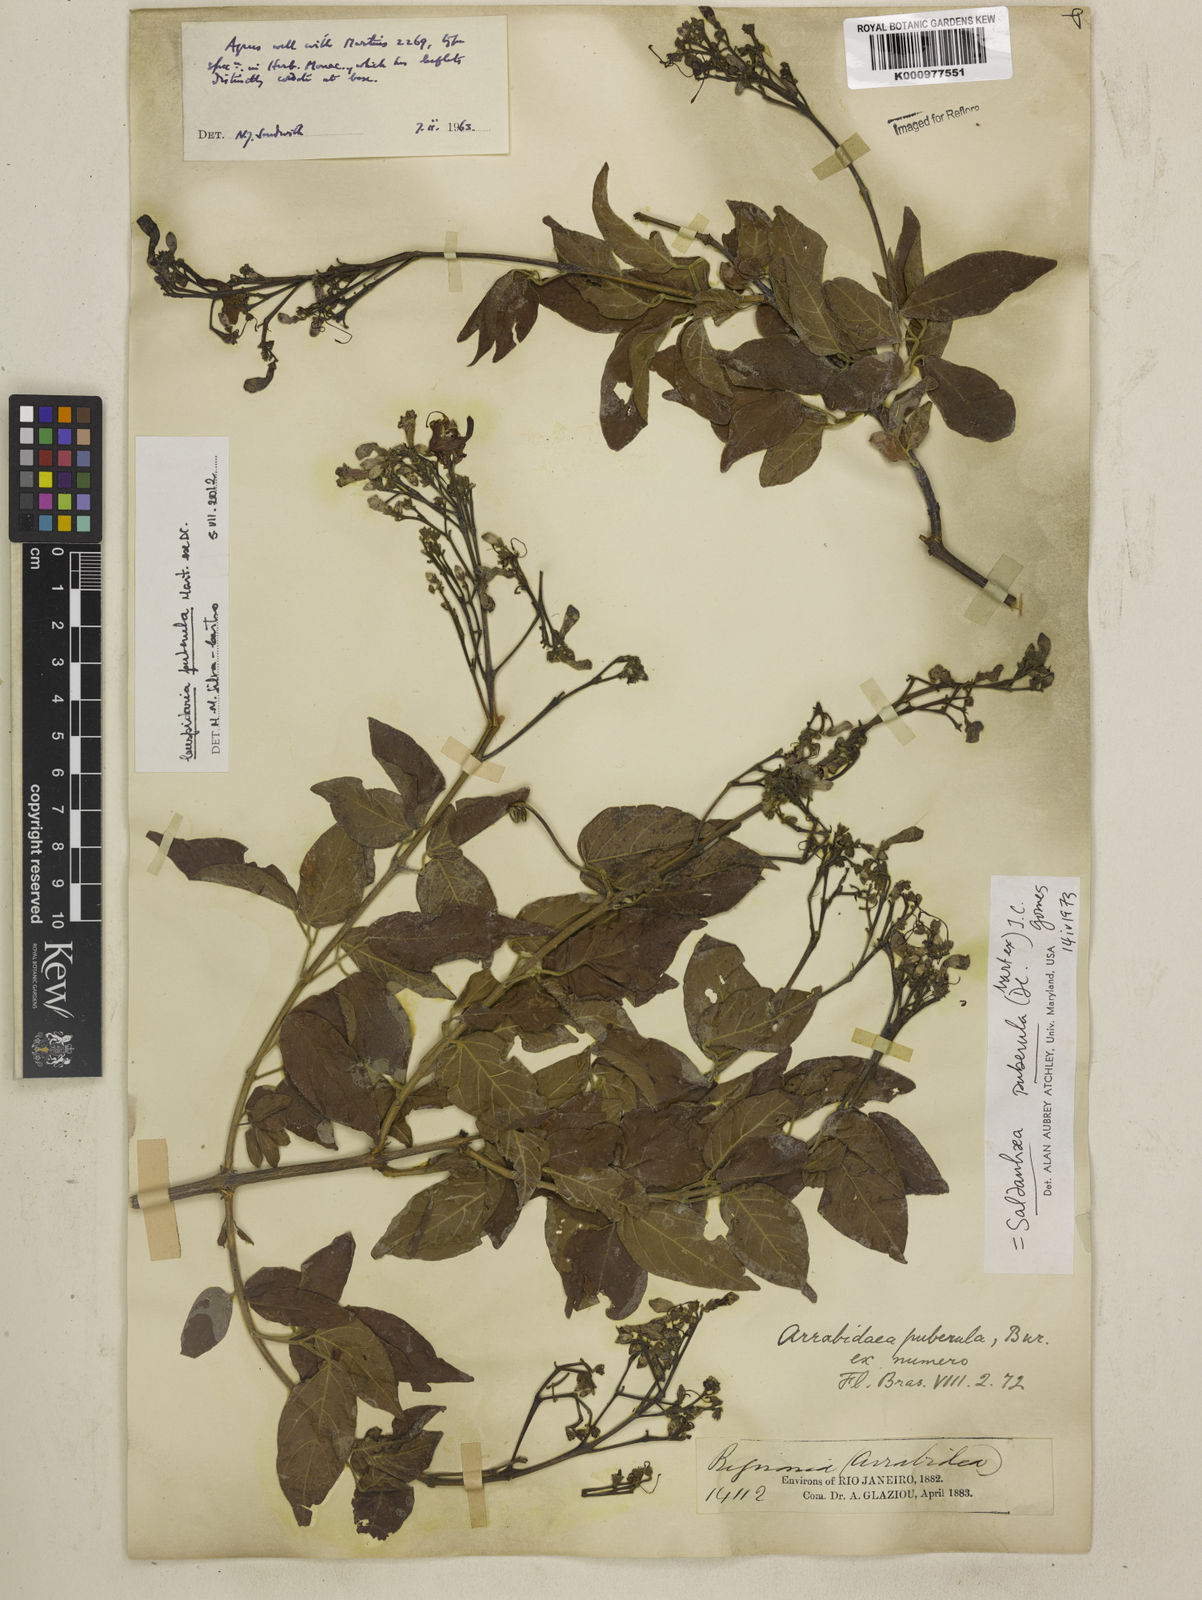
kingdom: Plantae
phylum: Tracheophyta
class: Magnoliopsida
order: Lamiales
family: Bignoniaceae
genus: Cuspidaria
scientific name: Cuspidaria simplicifolia
